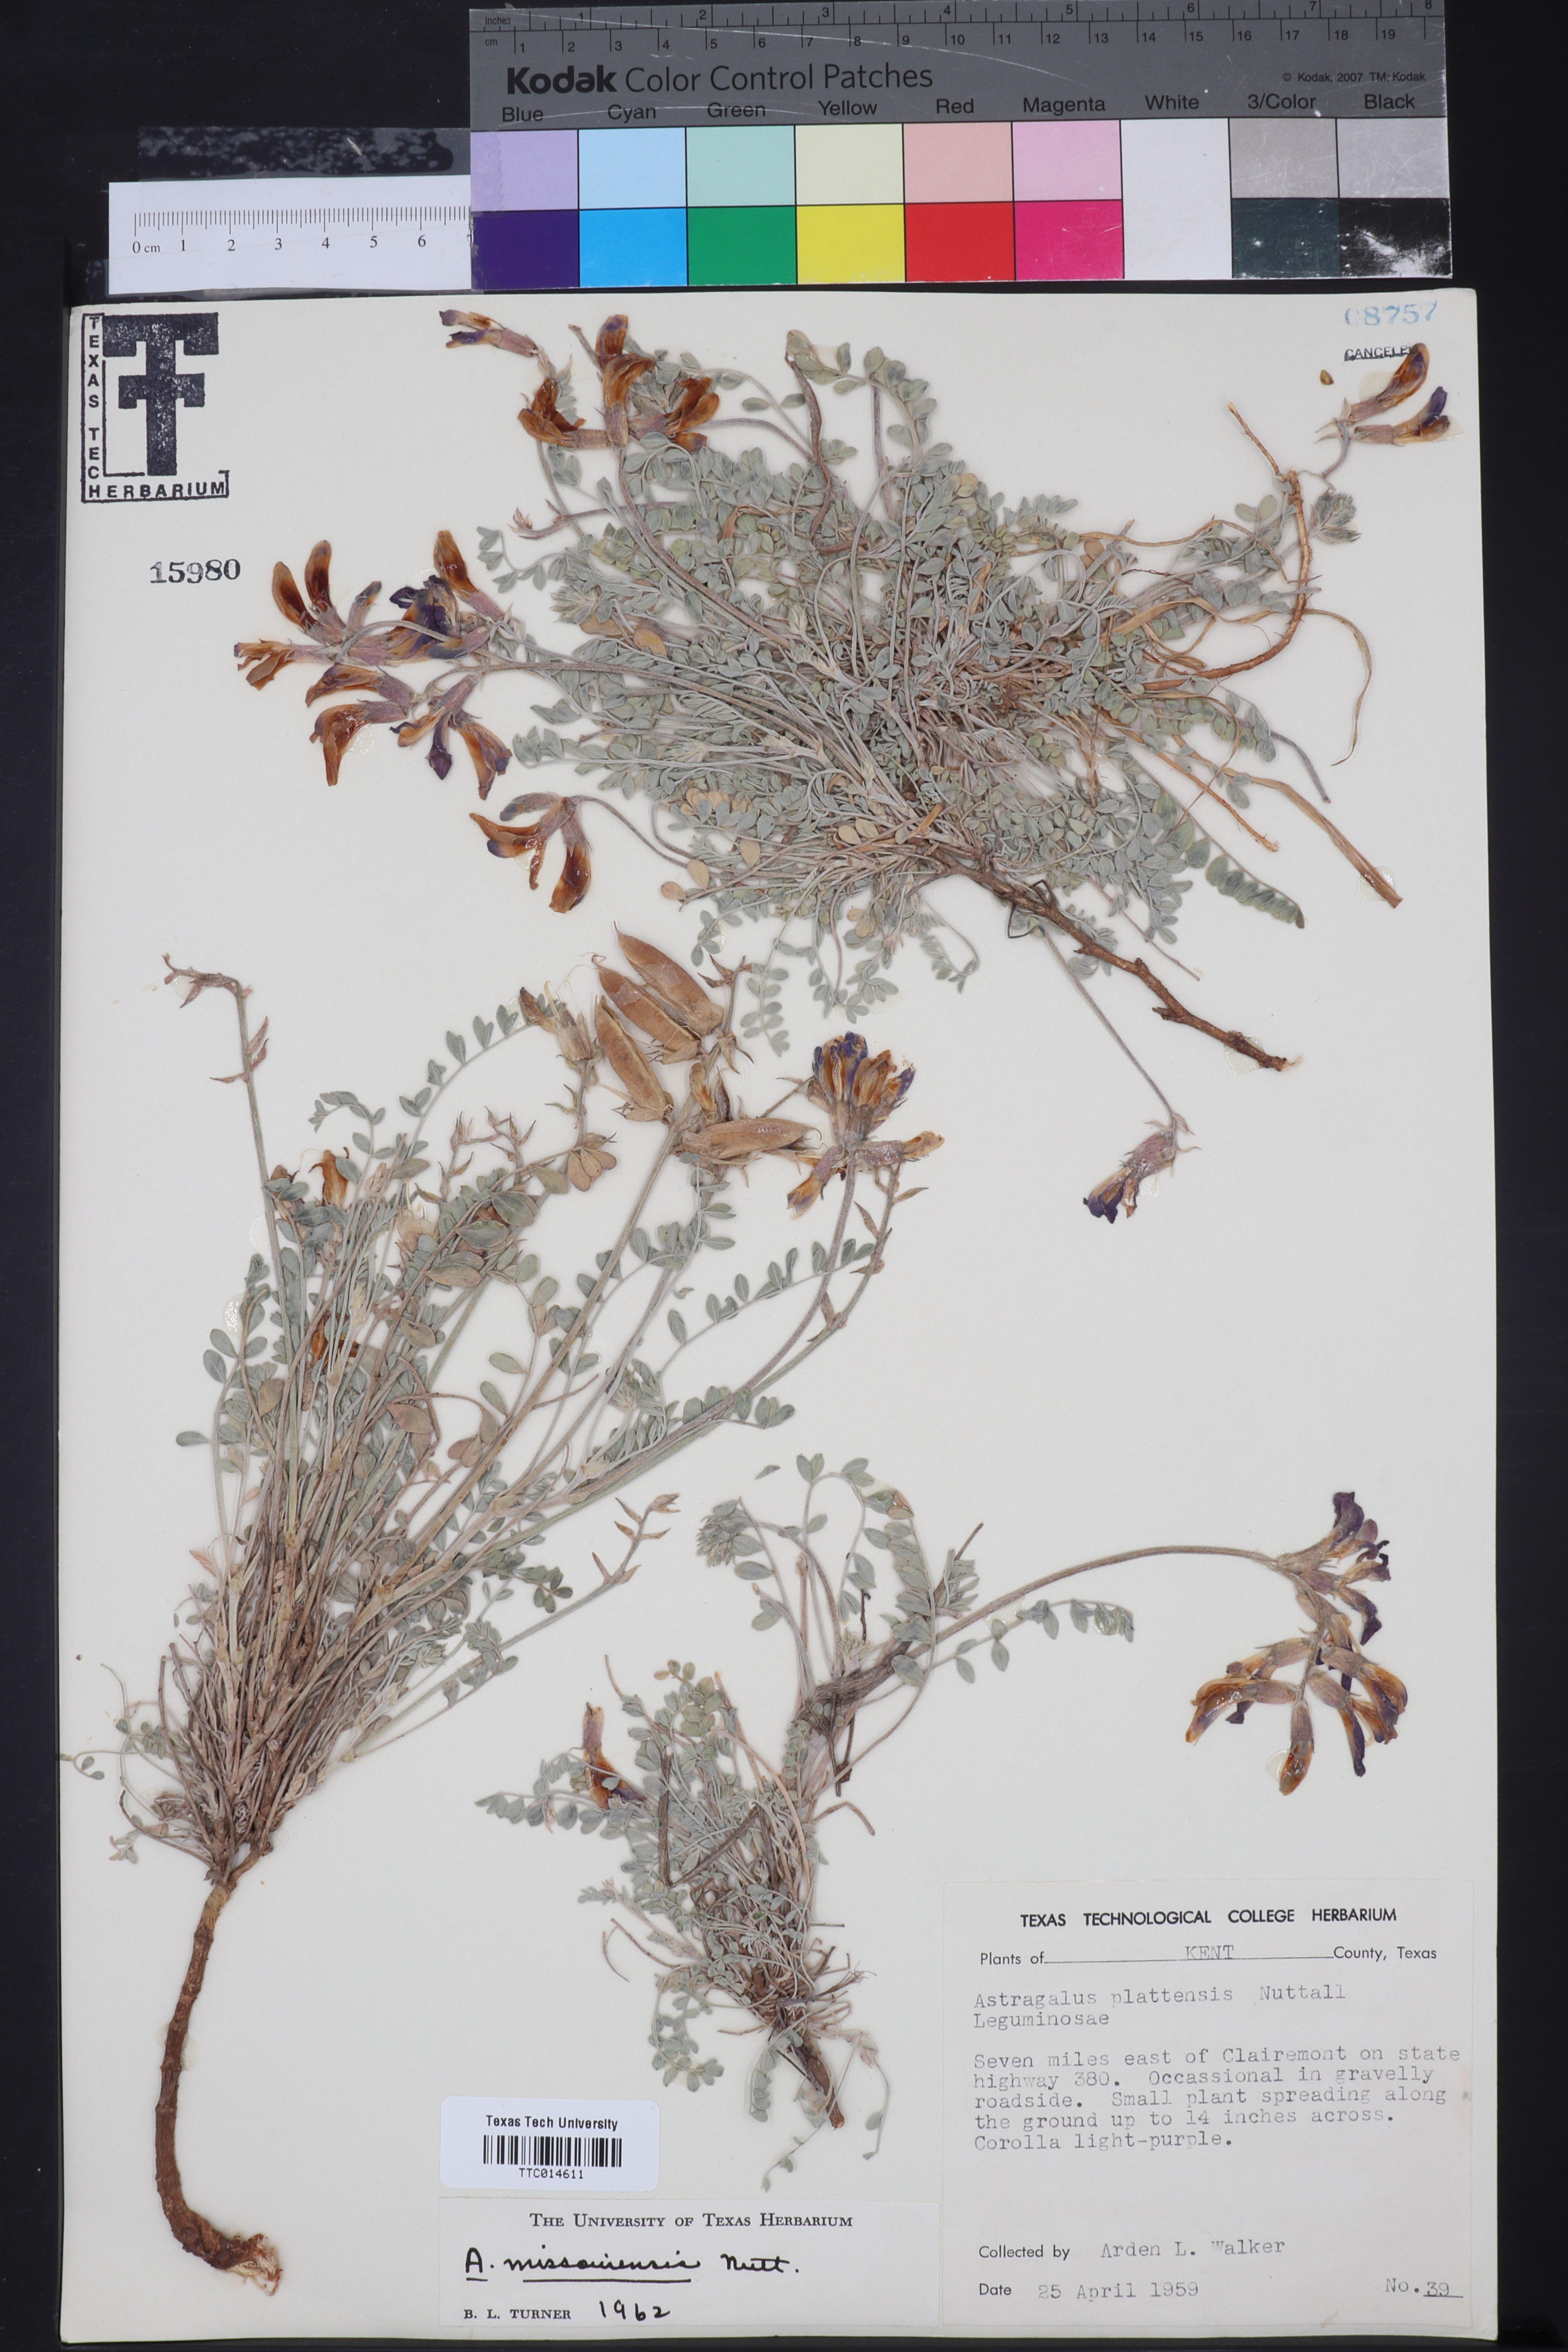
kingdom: Plantae
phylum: Tracheophyta
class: Magnoliopsida
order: Fabales
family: Fabaceae
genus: Astragalus
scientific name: Astragalus missouriensis
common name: Missouri milk-vetch
